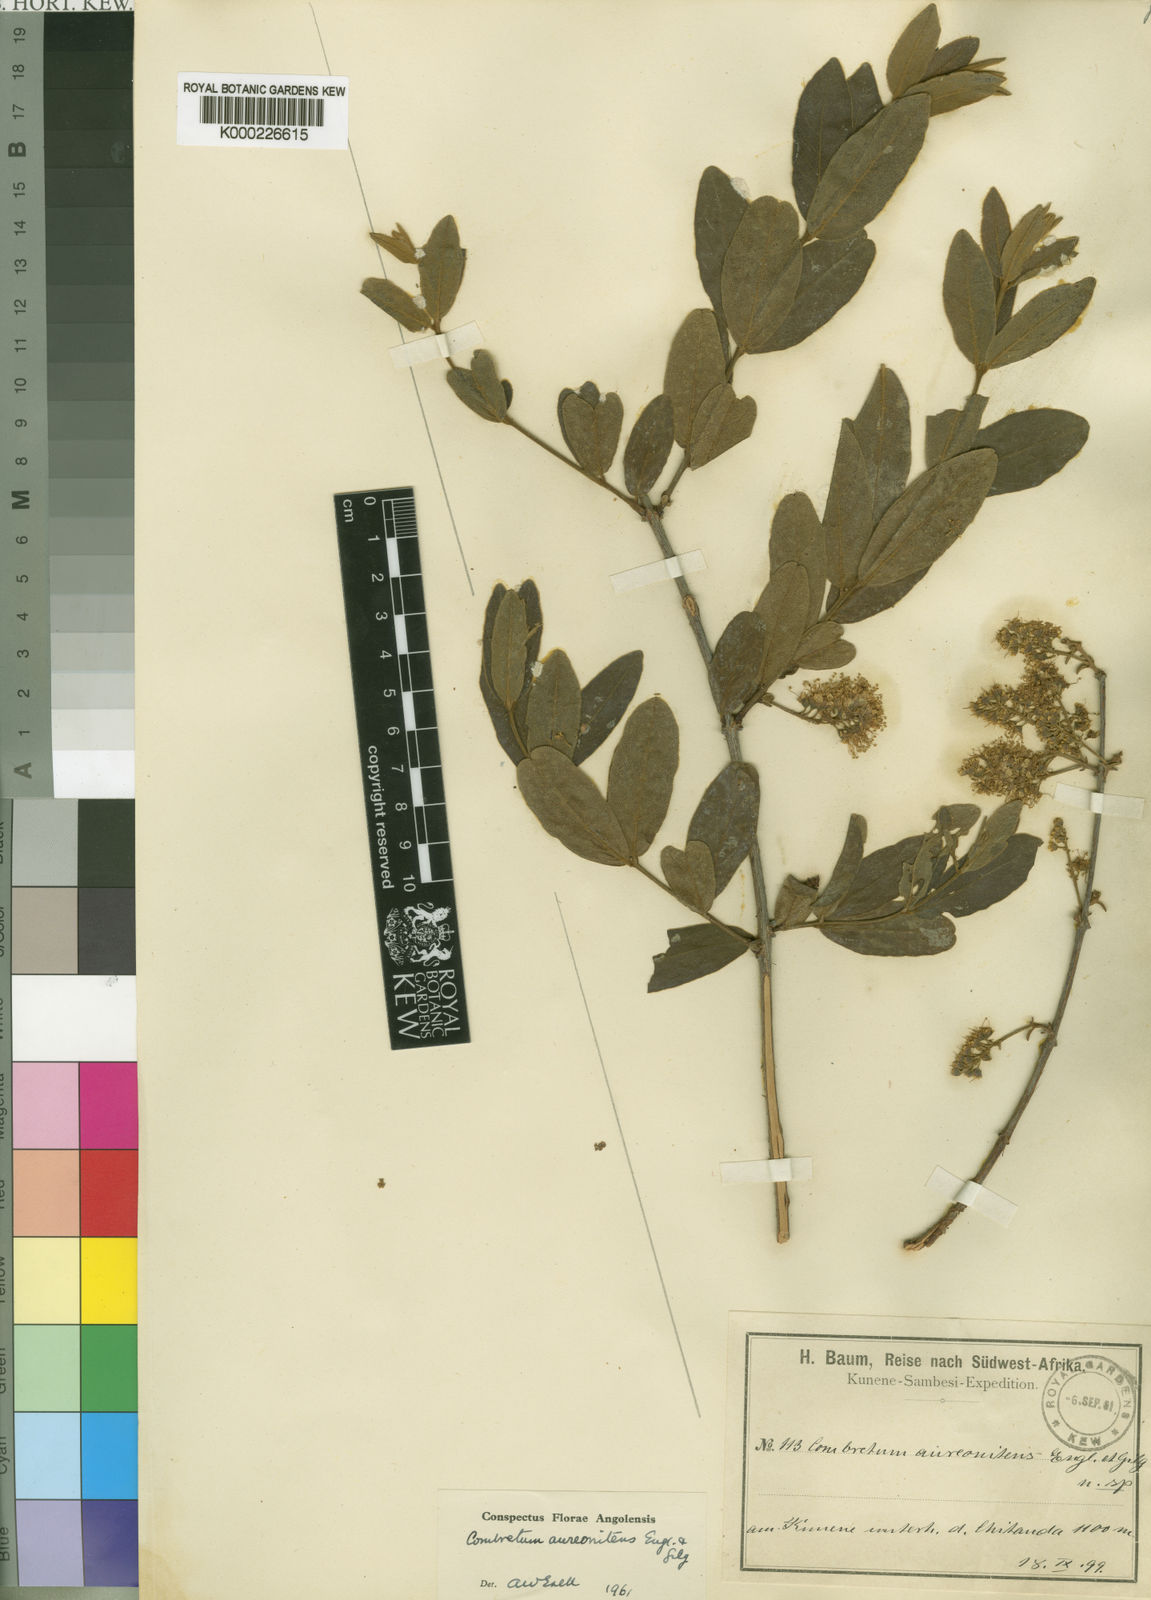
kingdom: Plantae
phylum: Tracheophyta
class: Magnoliopsida
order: Myrtales
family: Combretaceae
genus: Combretum
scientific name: Combretum aureonitens
